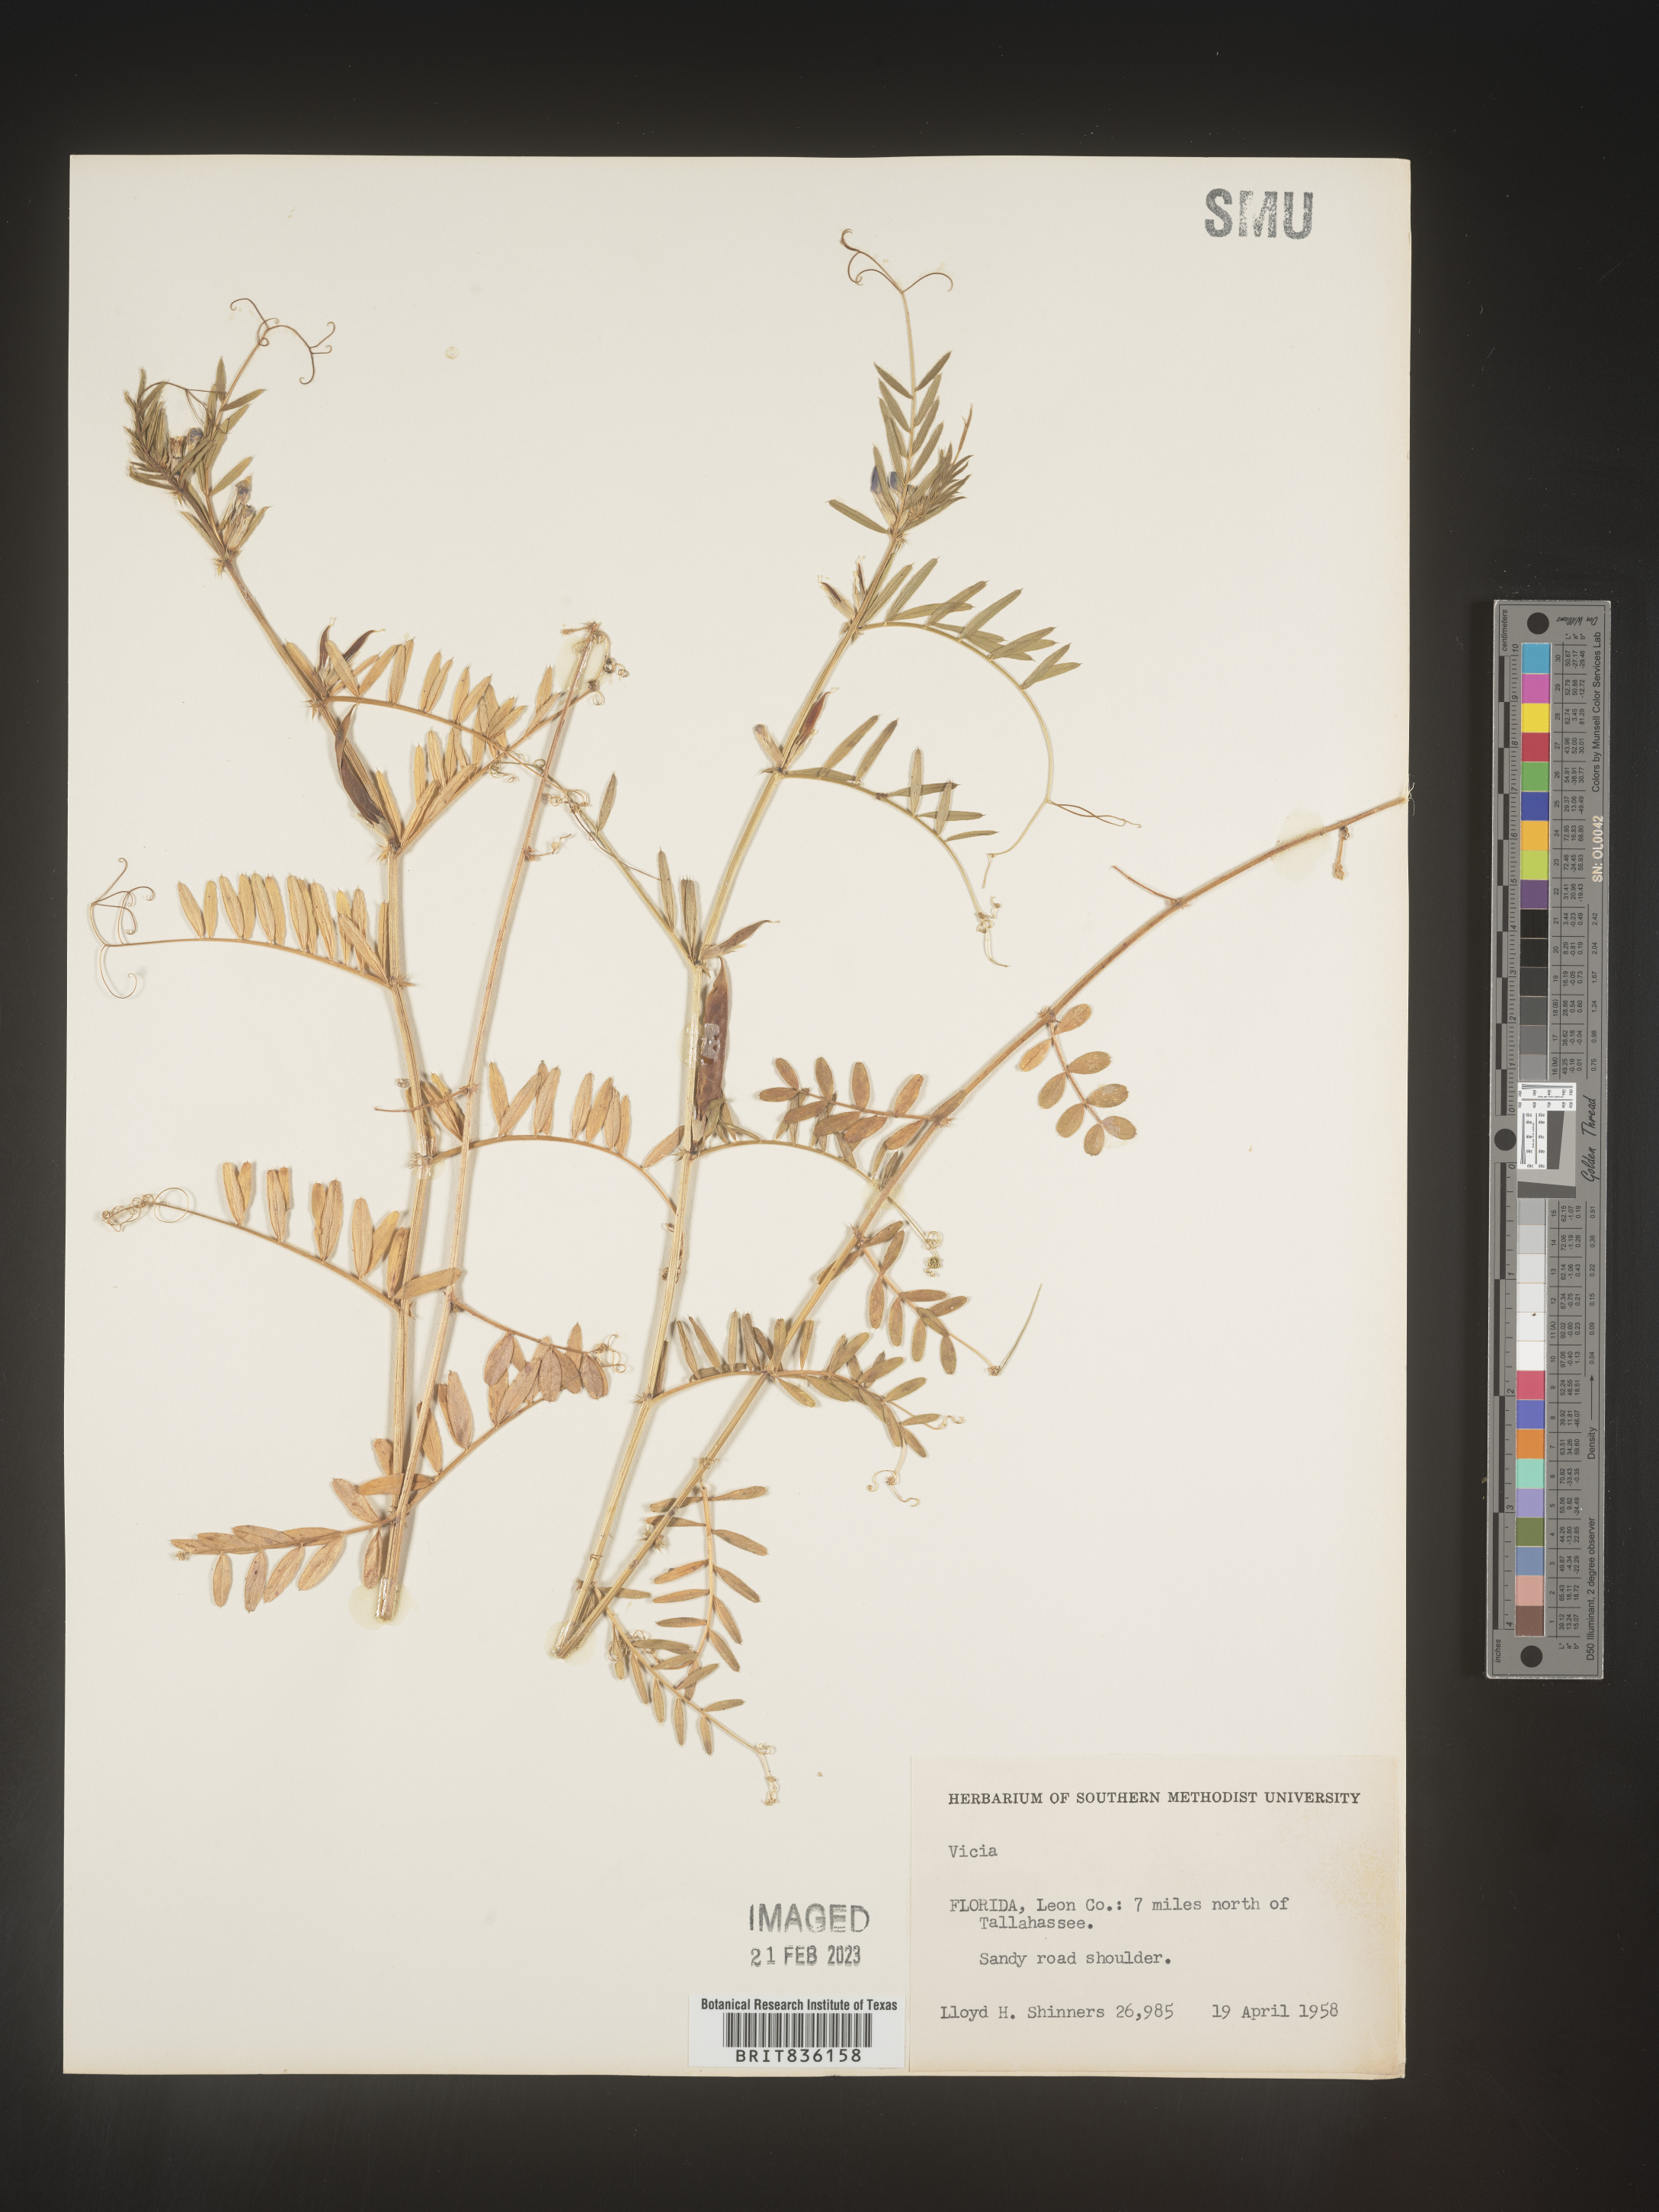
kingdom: Plantae
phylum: Tracheophyta
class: Magnoliopsida
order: Fabales
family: Fabaceae
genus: Vicia
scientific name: Vicia sativa
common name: Garden vetch
